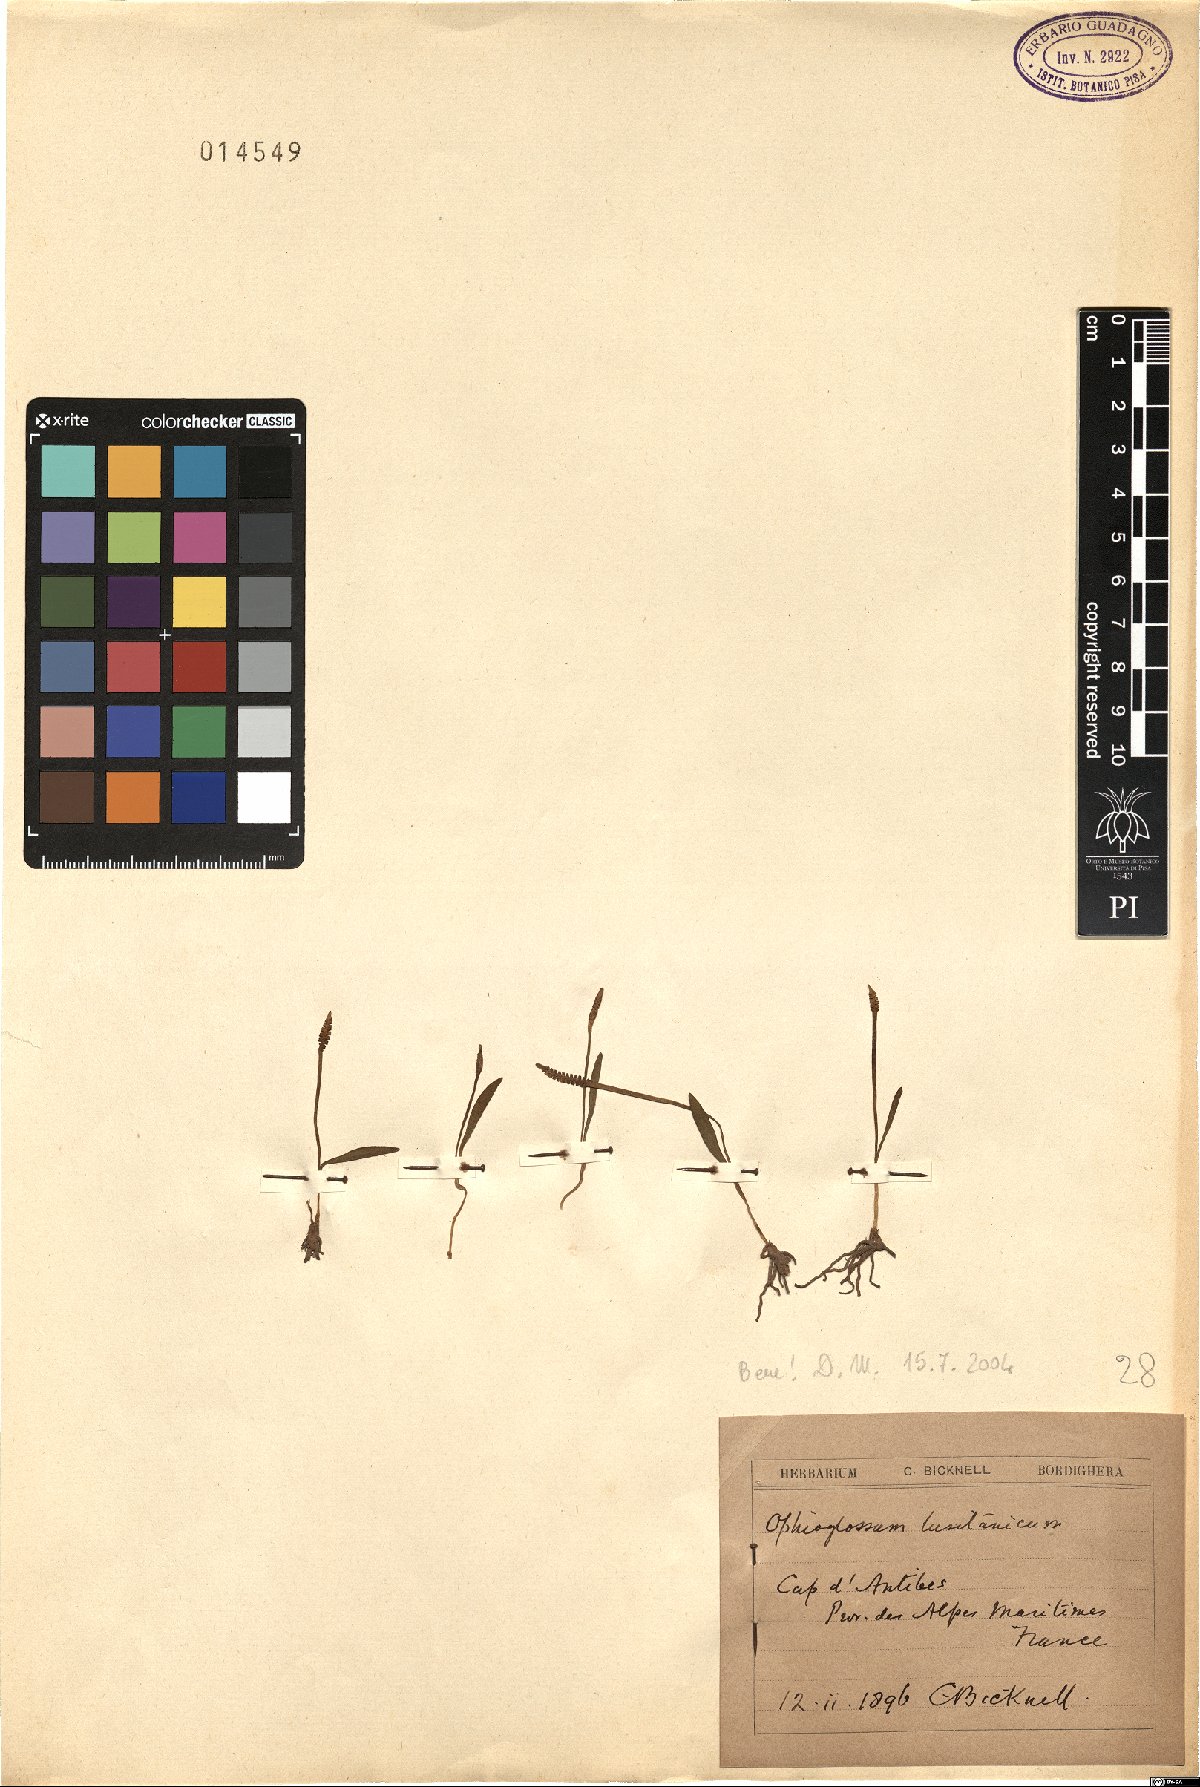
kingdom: Plantae
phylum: Tracheophyta
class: Polypodiopsida
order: Ophioglossales
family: Ophioglossaceae
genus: Ophioglossum
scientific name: Ophioglossum lusitanicum
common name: Least adder's-tongue
